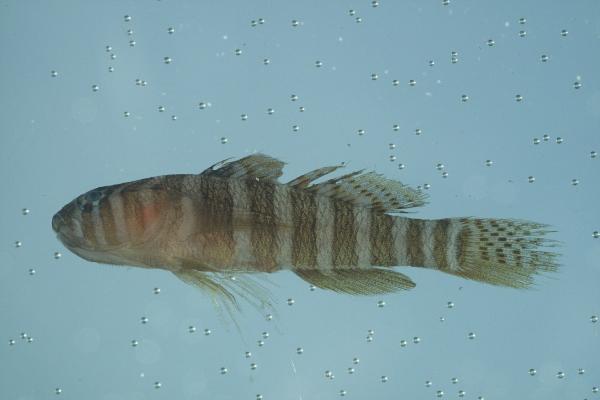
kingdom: Animalia
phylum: Chordata
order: Perciformes
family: Gobiidae
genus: Priolepis
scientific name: Priolepis cincta
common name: Banded reef-goby
